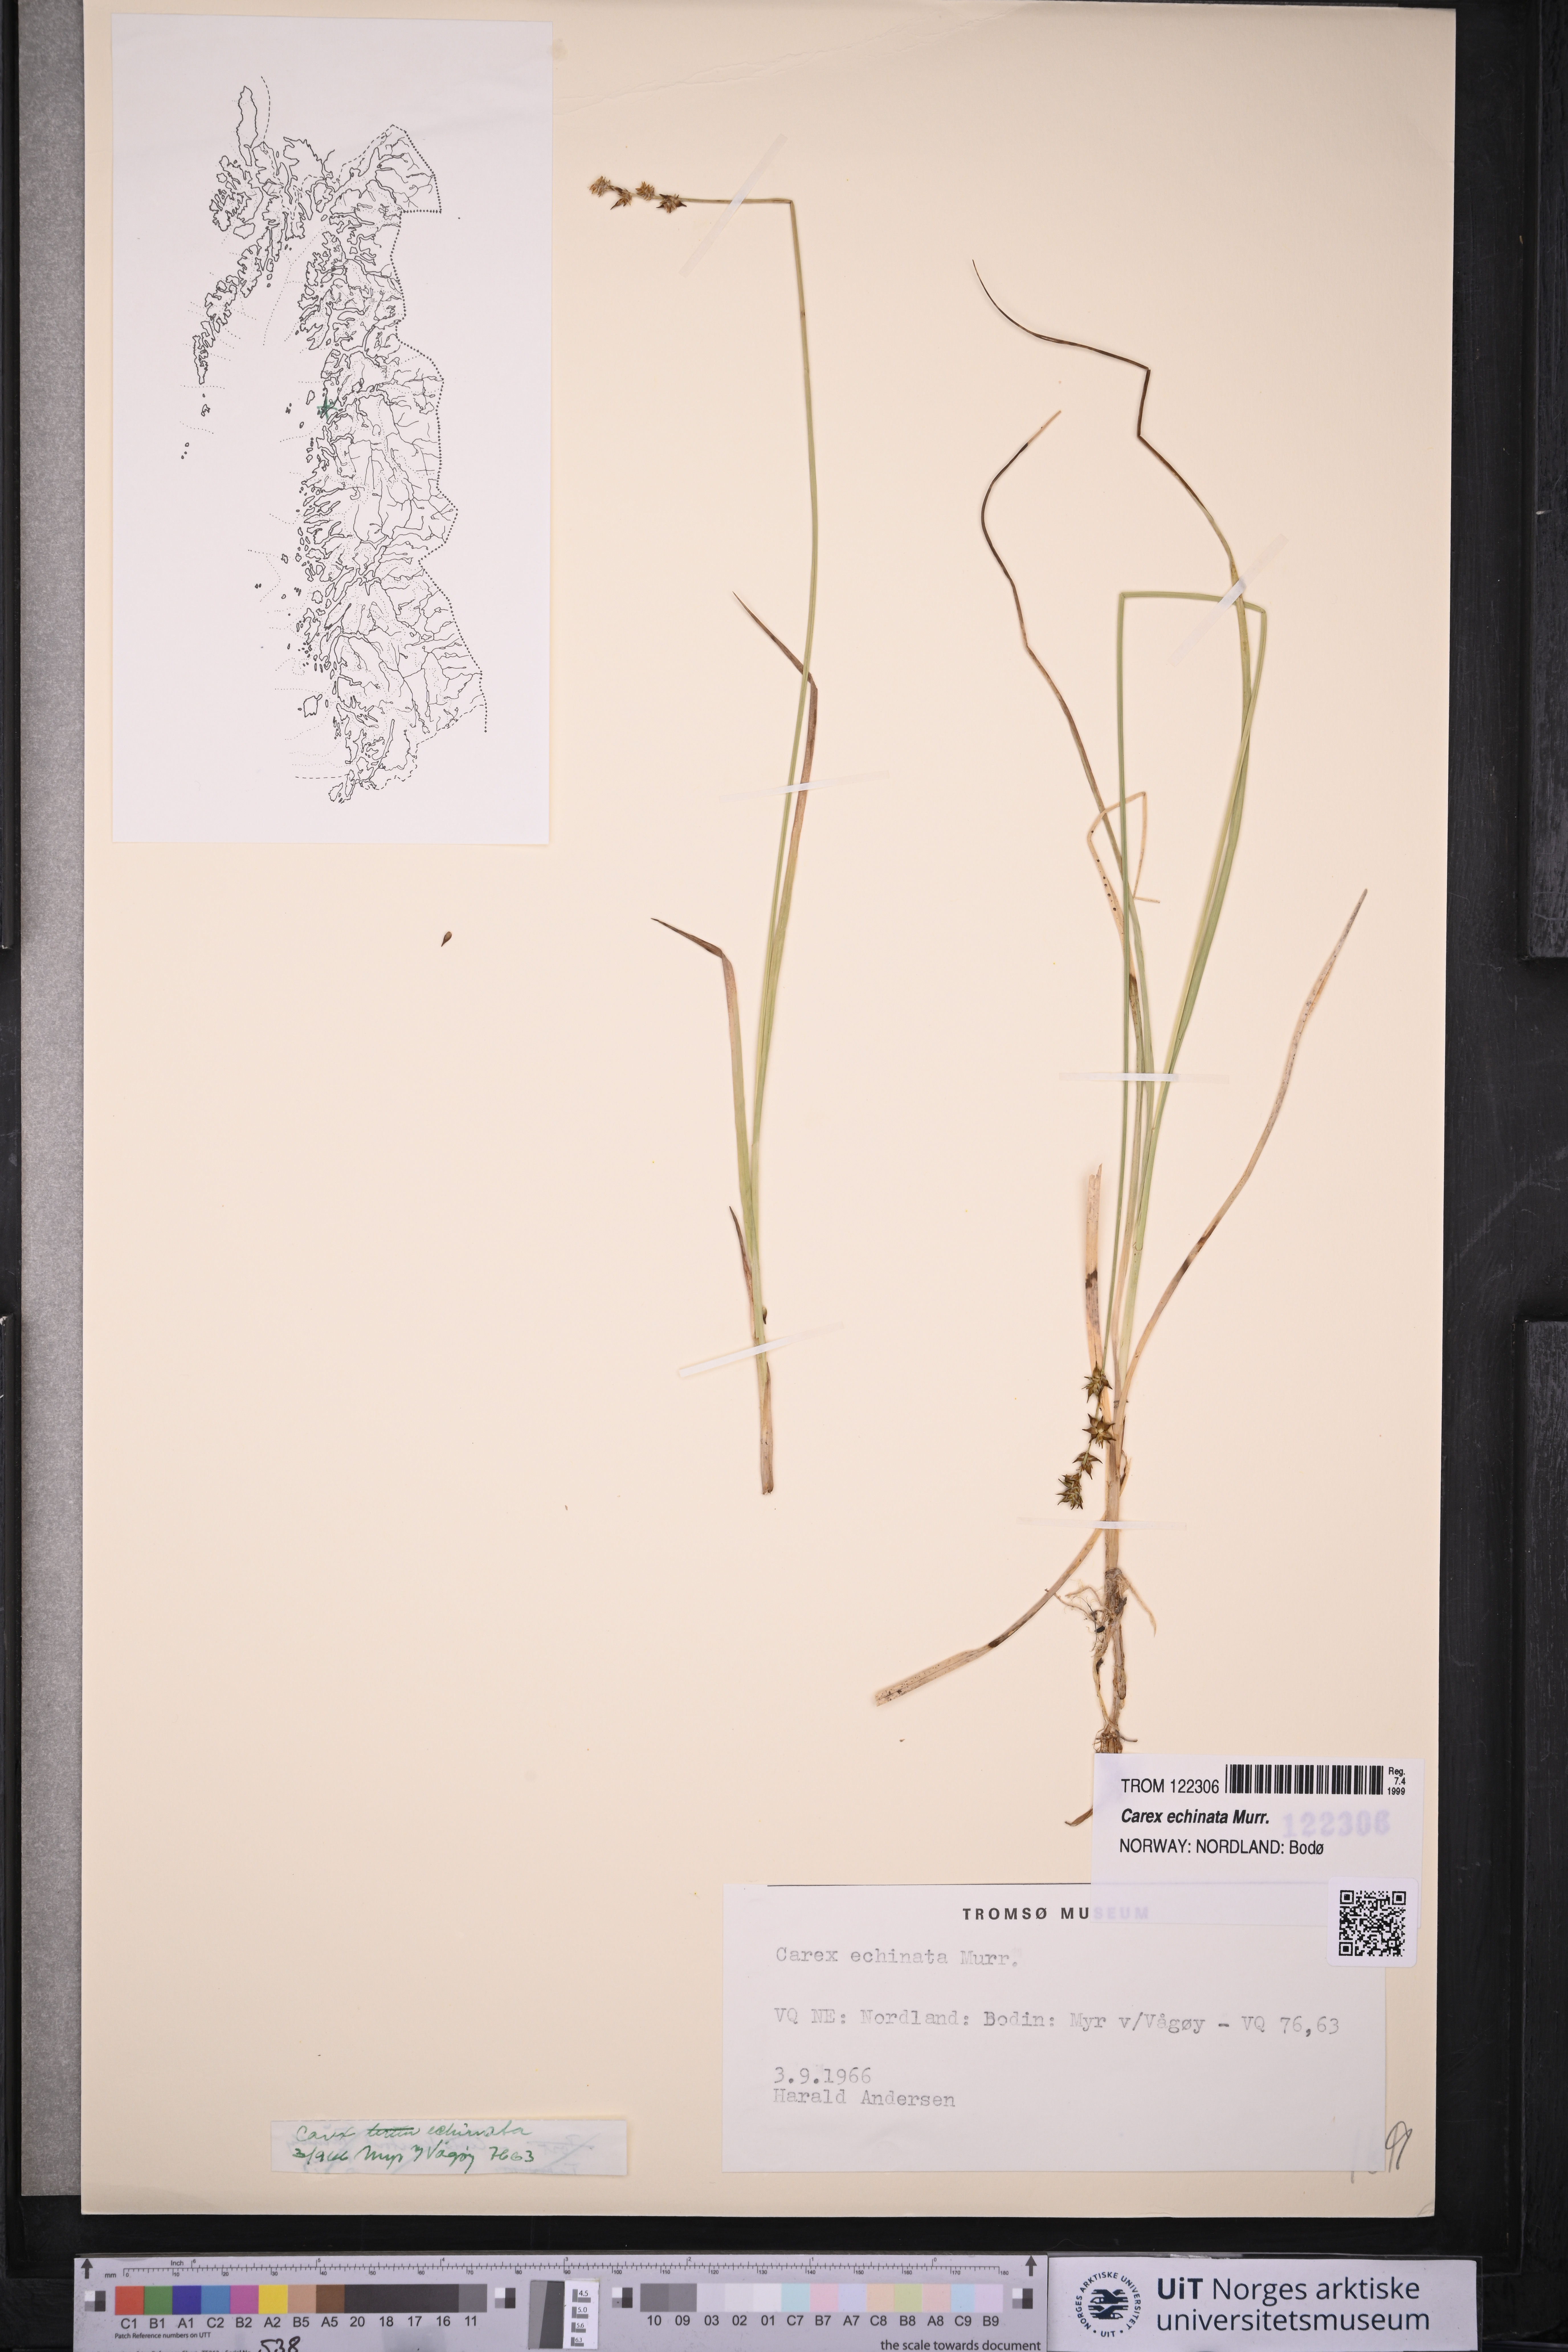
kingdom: Plantae
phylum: Tracheophyta
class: Liliopsida
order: Poales
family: Cyperaceae
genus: Carex
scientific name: Carex echinata
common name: Star sedge
